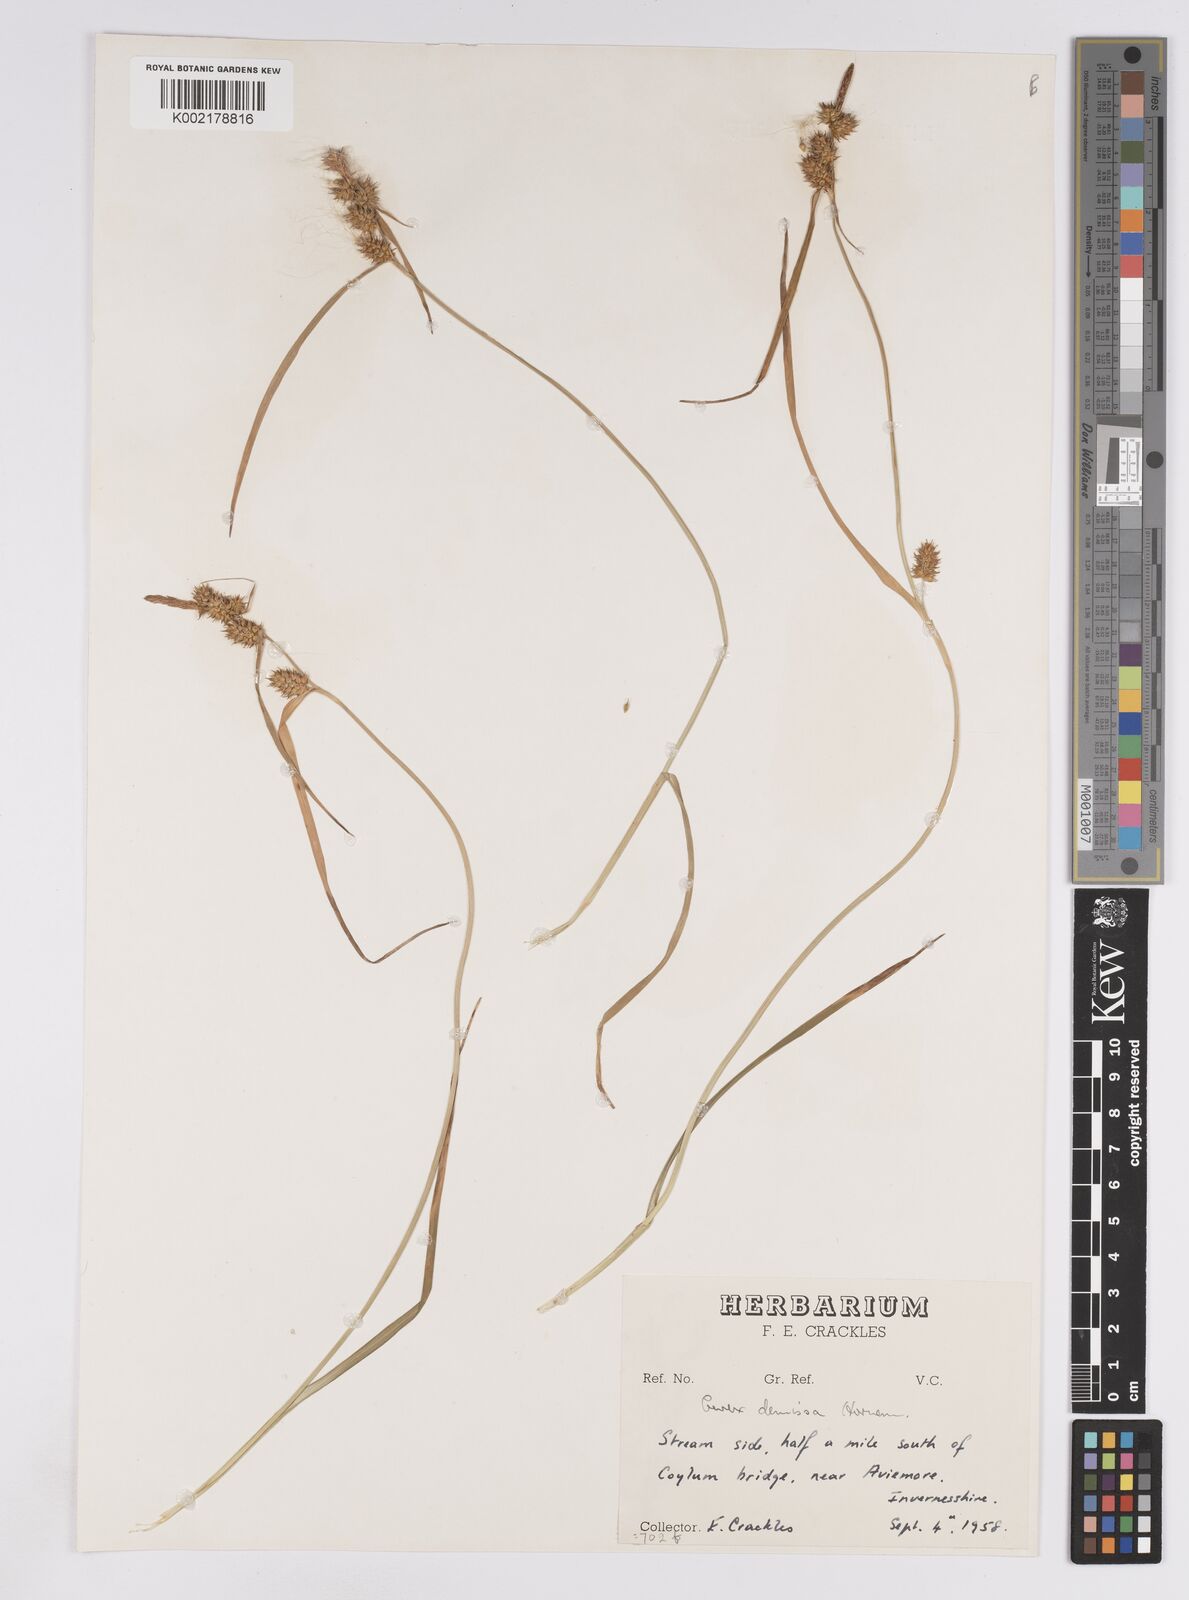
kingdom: Plantae
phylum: Tracheophyta
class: Liliopsida
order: Poales
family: Cyperaceae
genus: Carex
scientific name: Carex lepidocarpa
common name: Long-stalked yellow-sedge
